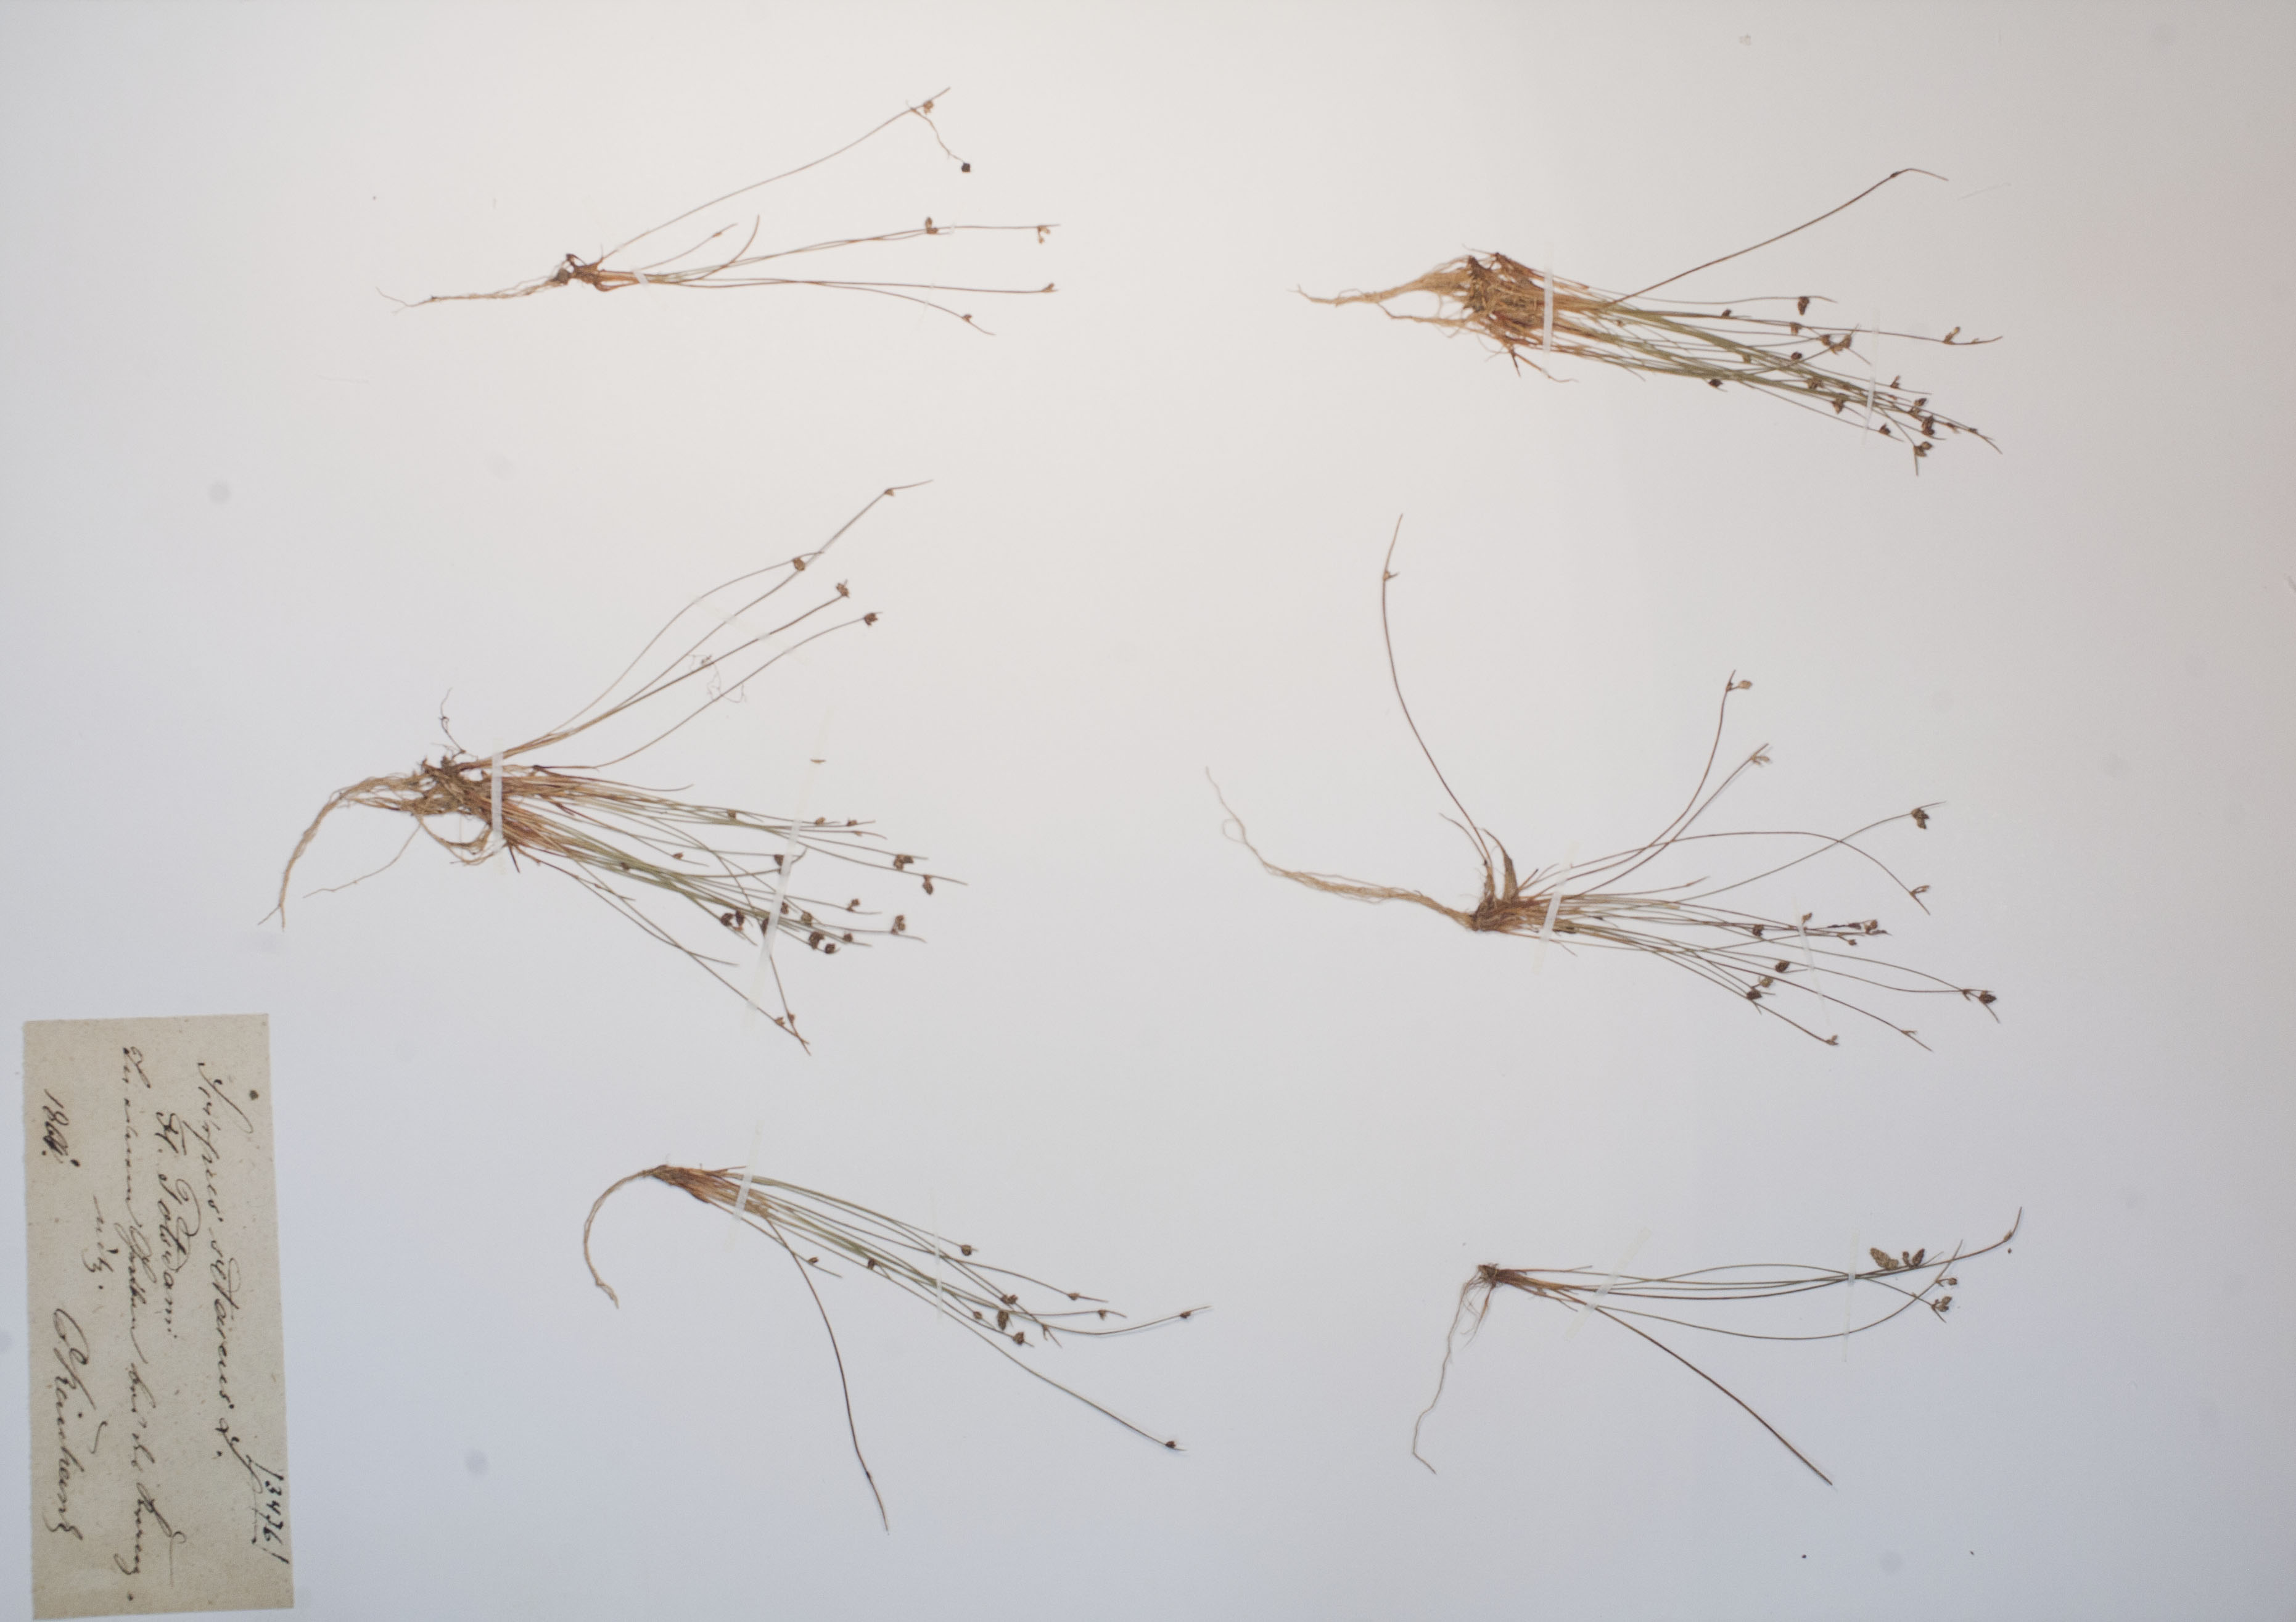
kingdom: Plantae
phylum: Tracheophyta
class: Liliopsida
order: Poales
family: Cyperaceae
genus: Isolepis
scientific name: Isolepis setacea
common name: Bristle club-rush
